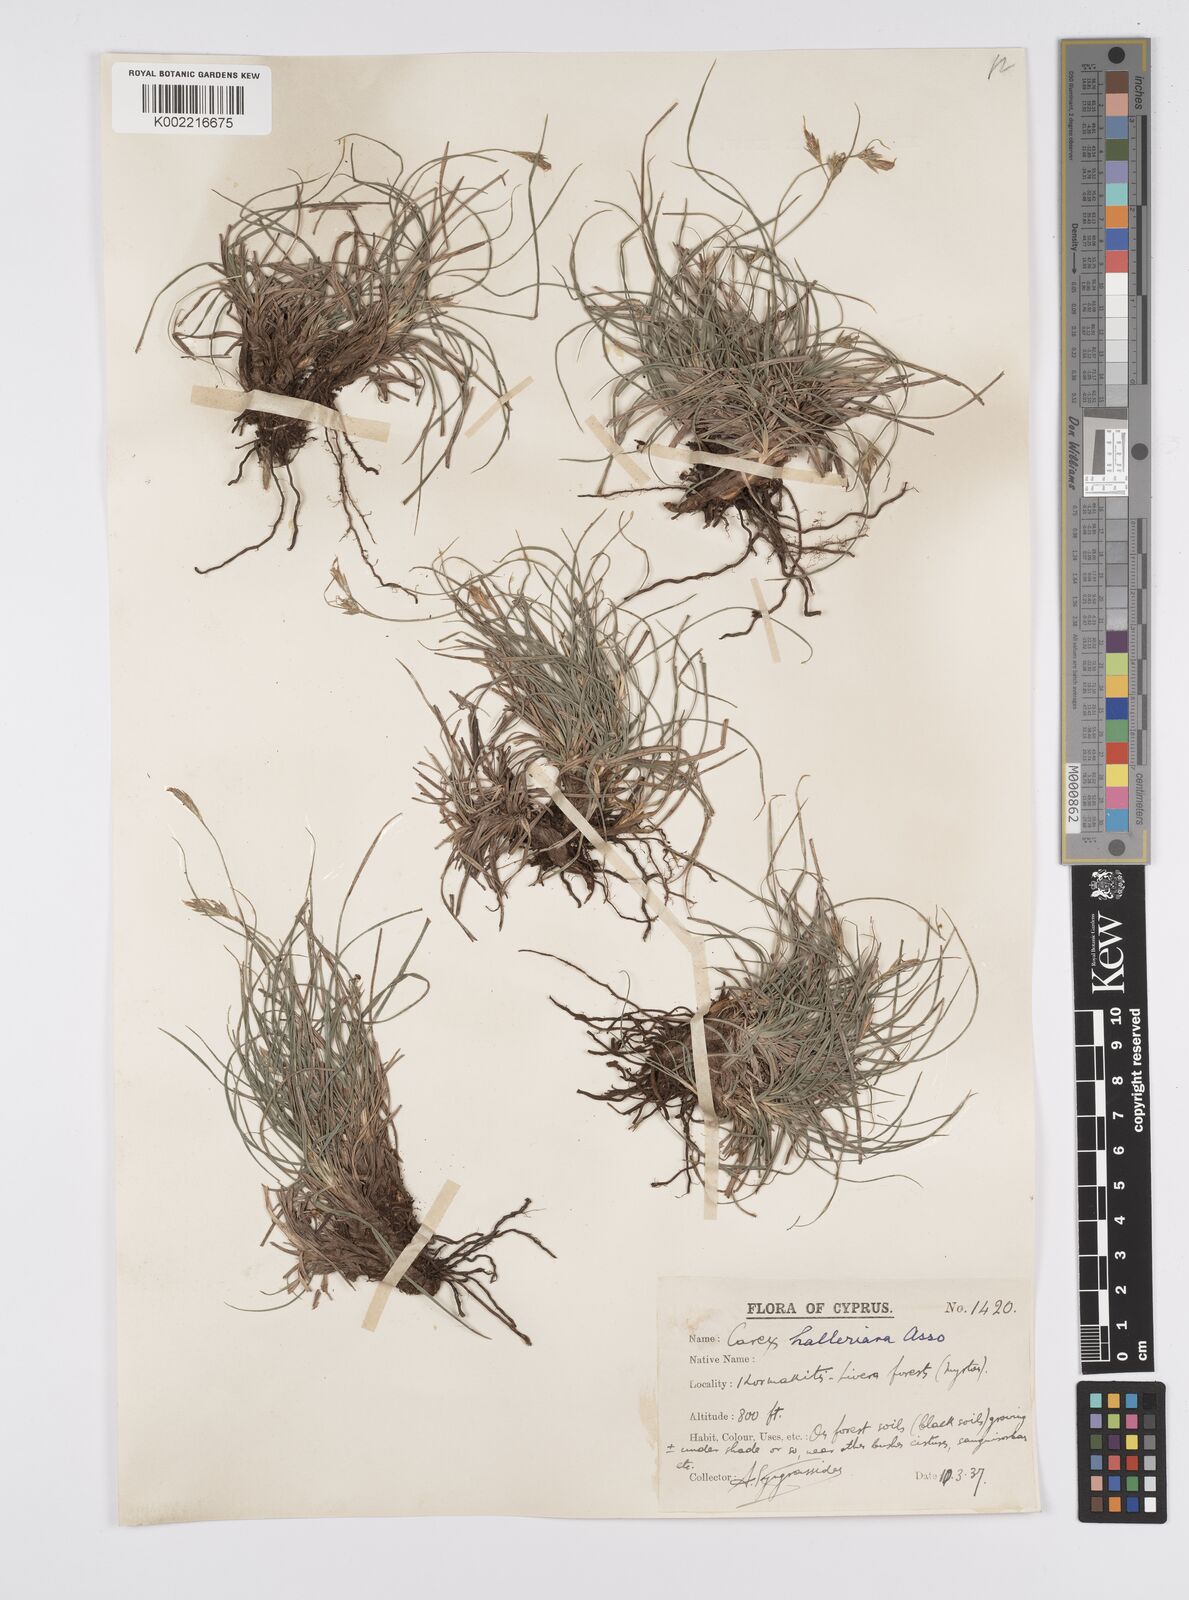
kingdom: Plantae
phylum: Tracheophyta
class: Liliopsida
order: Poales
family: Cyperaceae
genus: Carex
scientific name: Carex halleriana
